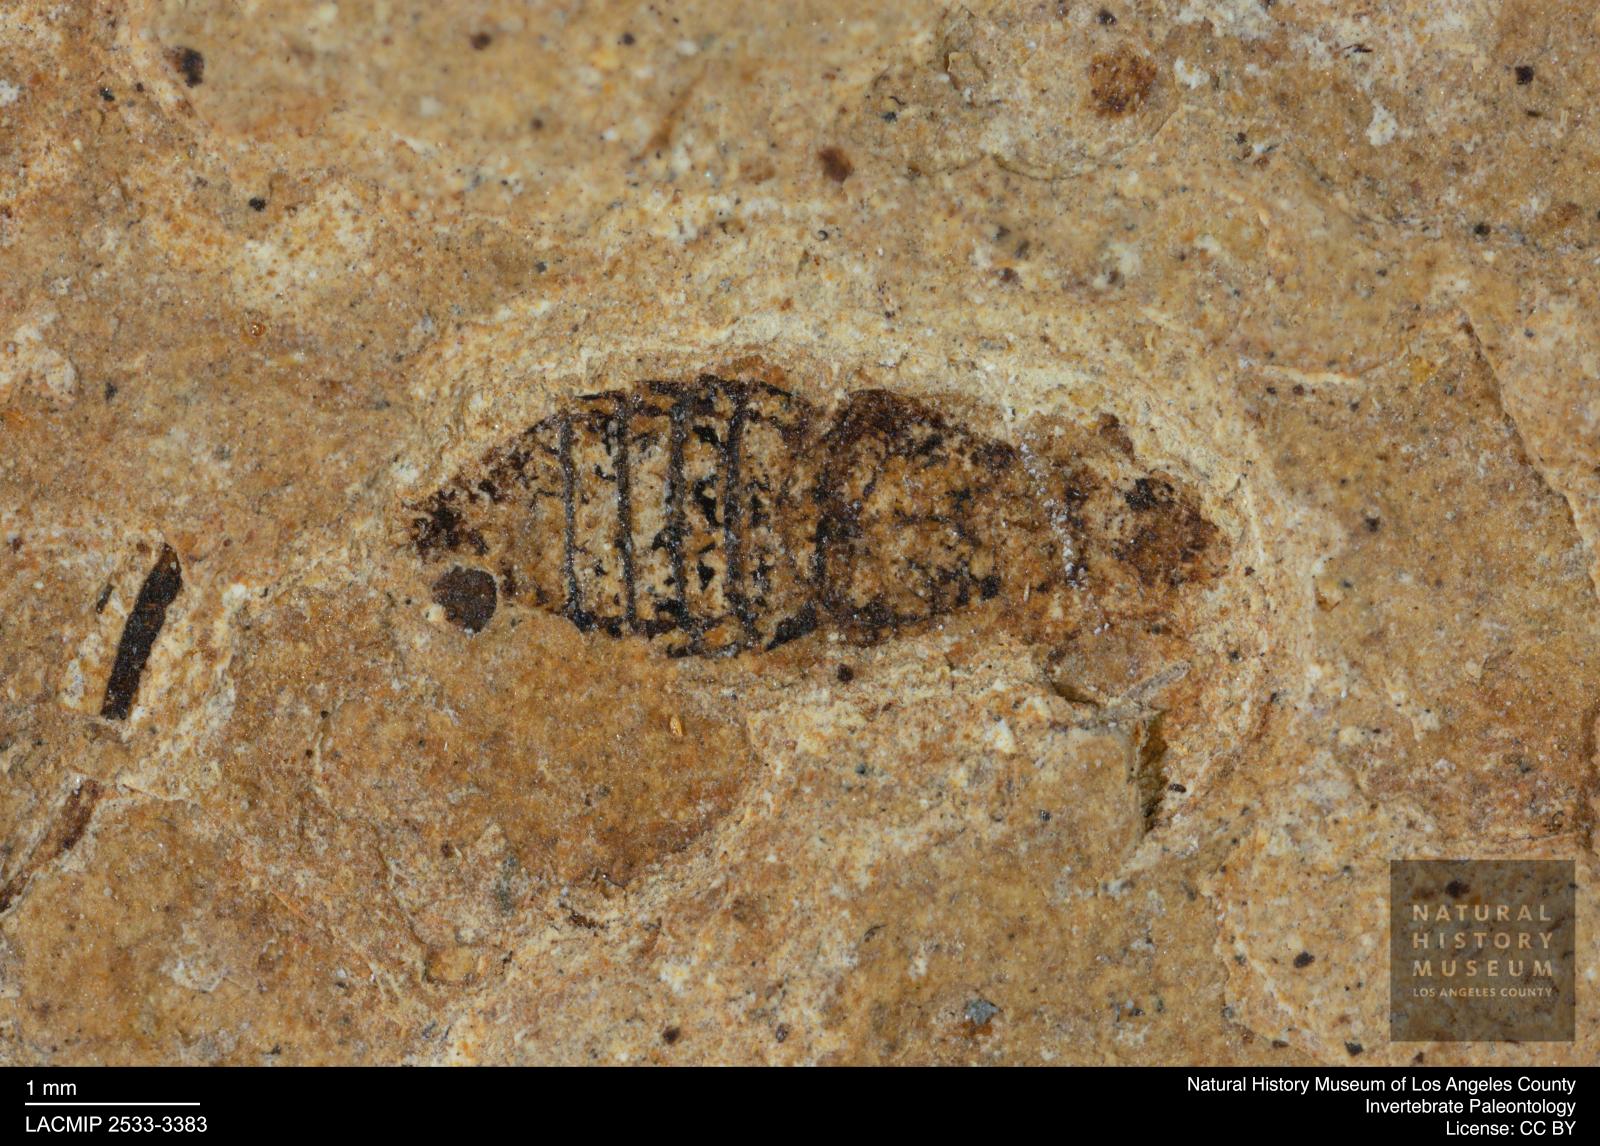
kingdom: Animalia
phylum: Arthropoda
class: Insecta
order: Coleoptera
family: Staphylinidae
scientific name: Staphylinidae
